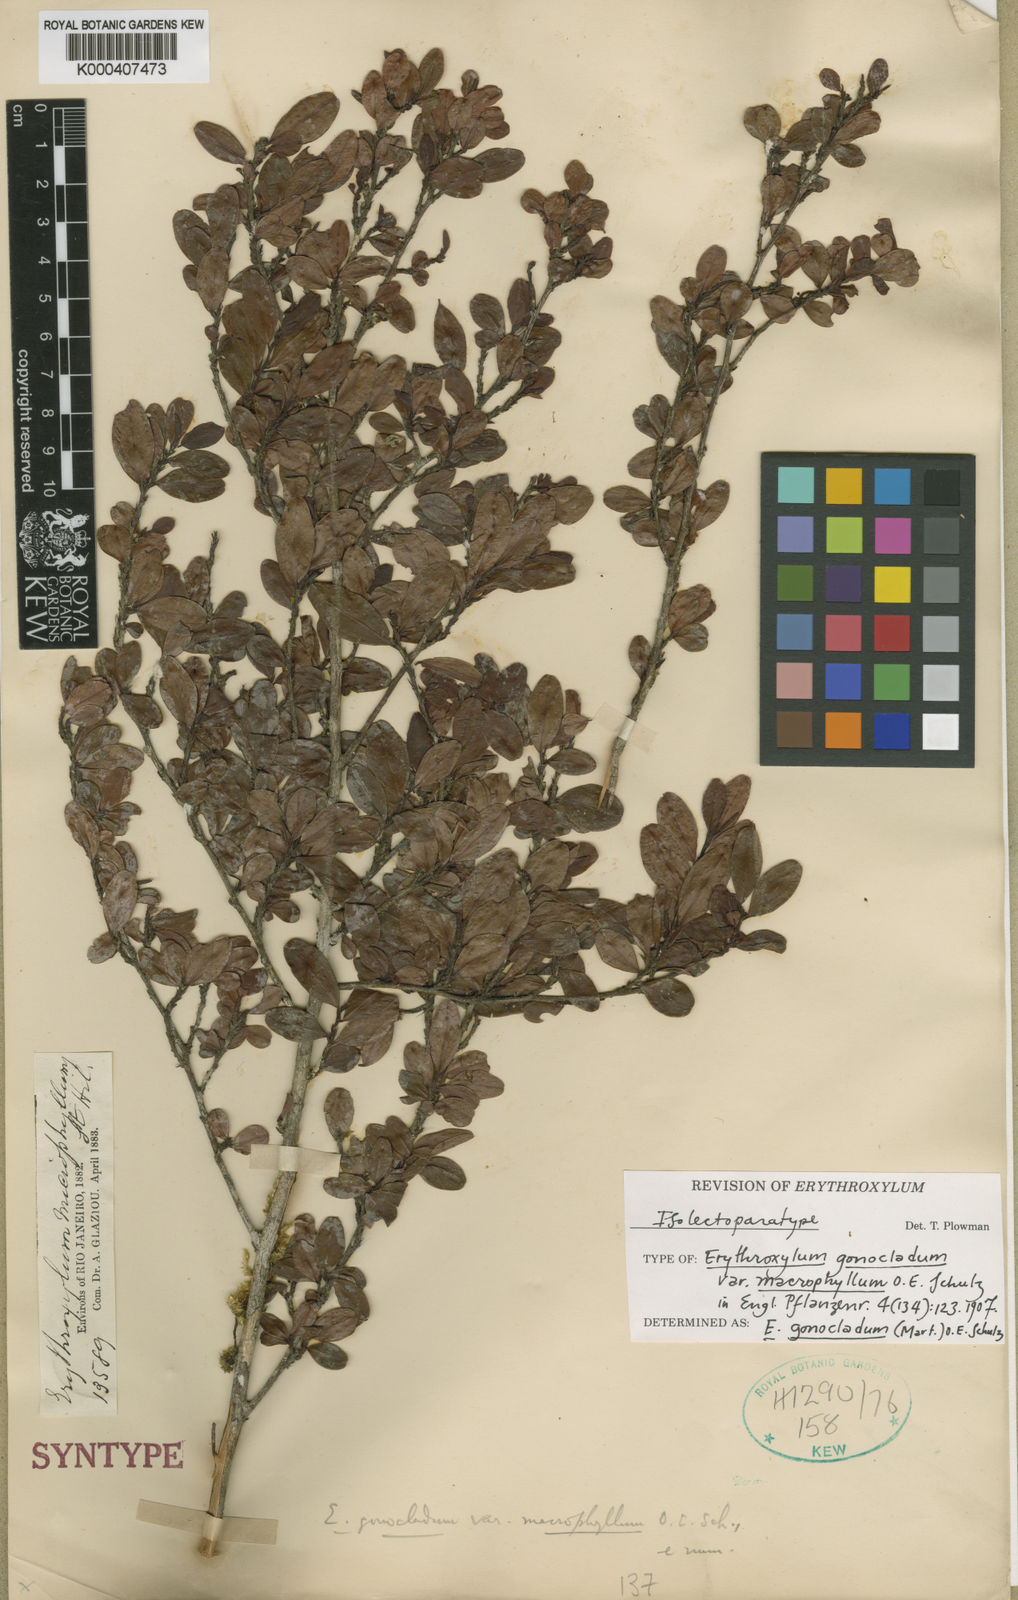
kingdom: Plantae
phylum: Tracheophyta
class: Magnoliopsida
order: Malpighiales
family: Erythroxylaceae
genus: Erythroxylum
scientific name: Erythroxylum
